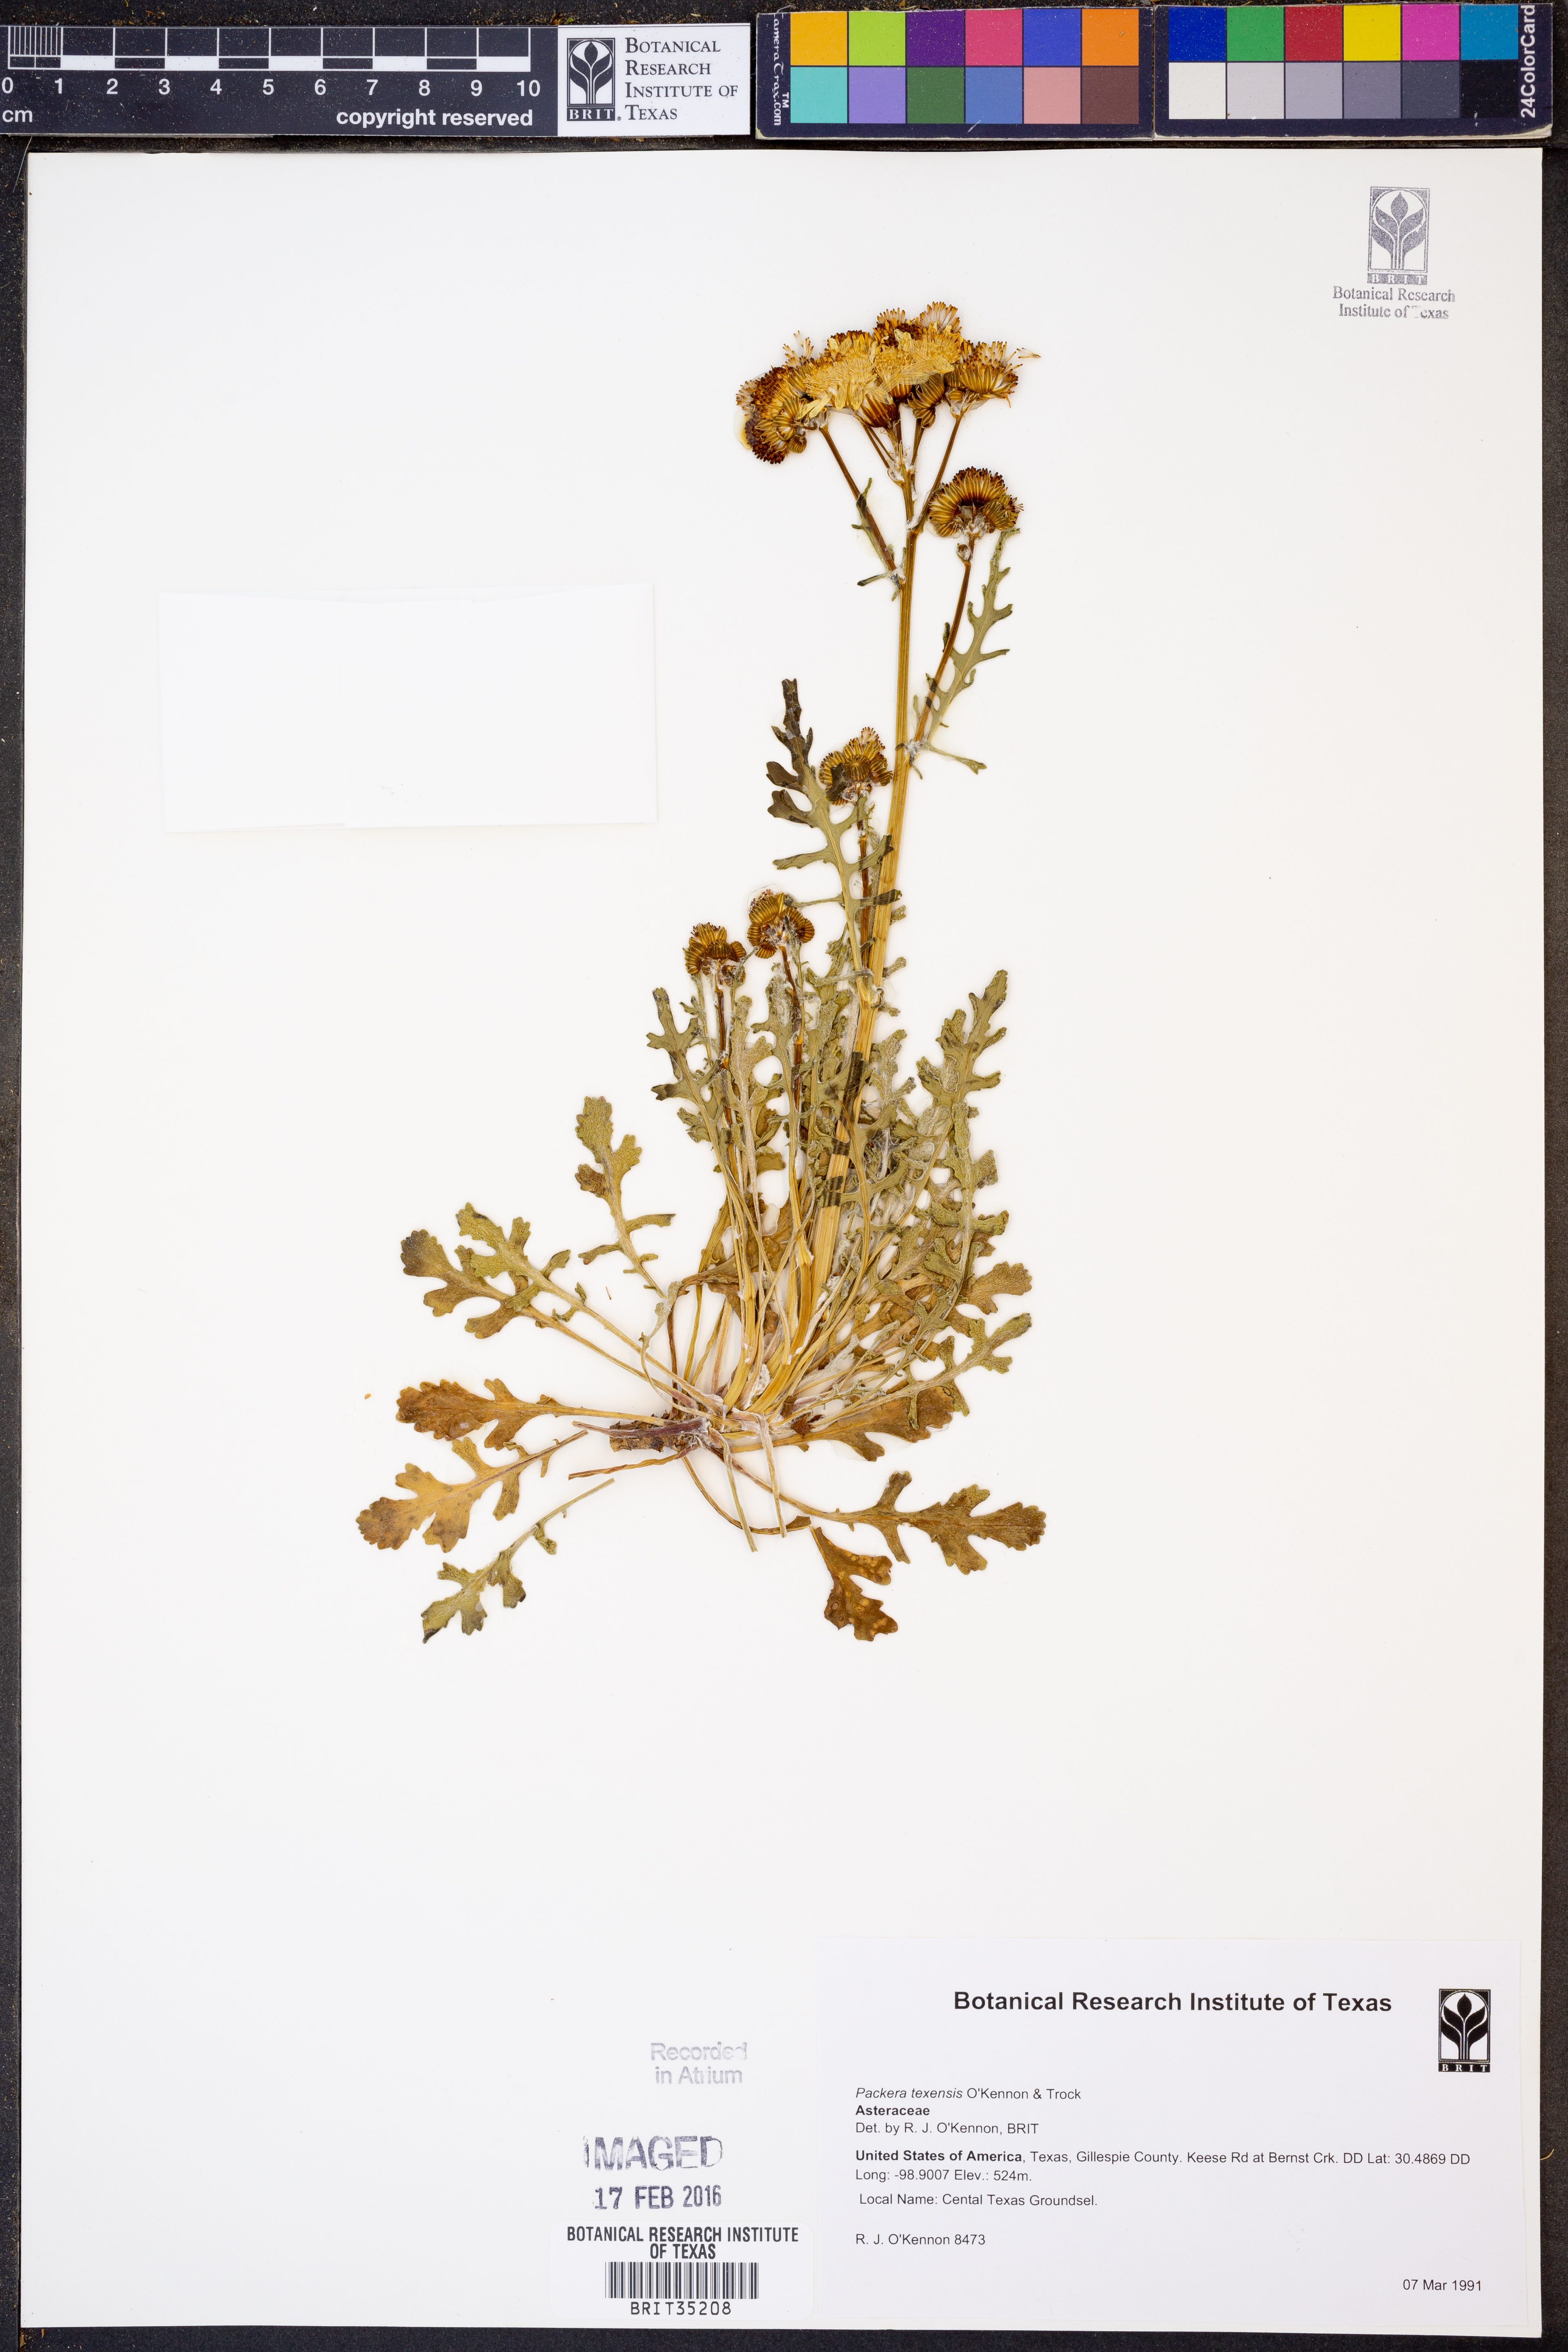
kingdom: Plantae
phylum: Tracheophyta
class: Magnoliopsida
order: Asterales
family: Asteraceae
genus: Packera
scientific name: Packera texensis
